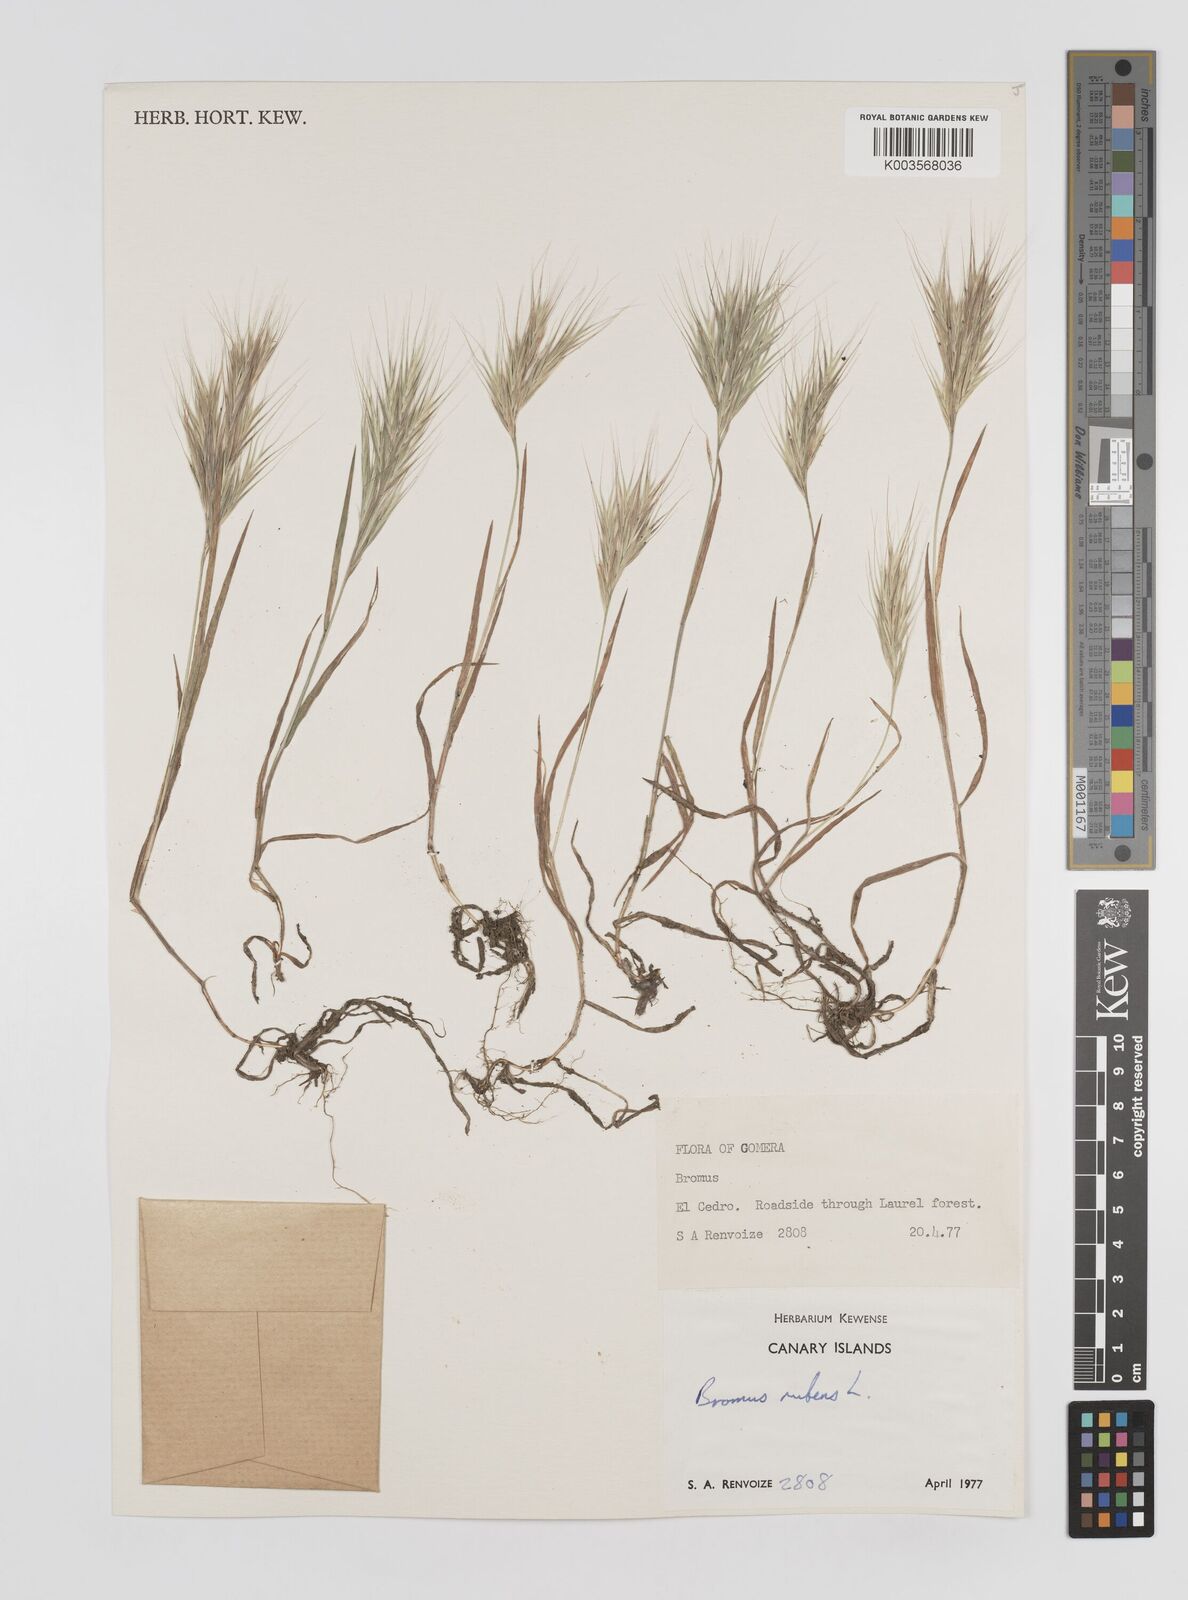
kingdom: Plantae
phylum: Tracheophyta
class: Liliopsida
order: Poales
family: Poaceae
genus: Bromus
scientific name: Bromus
